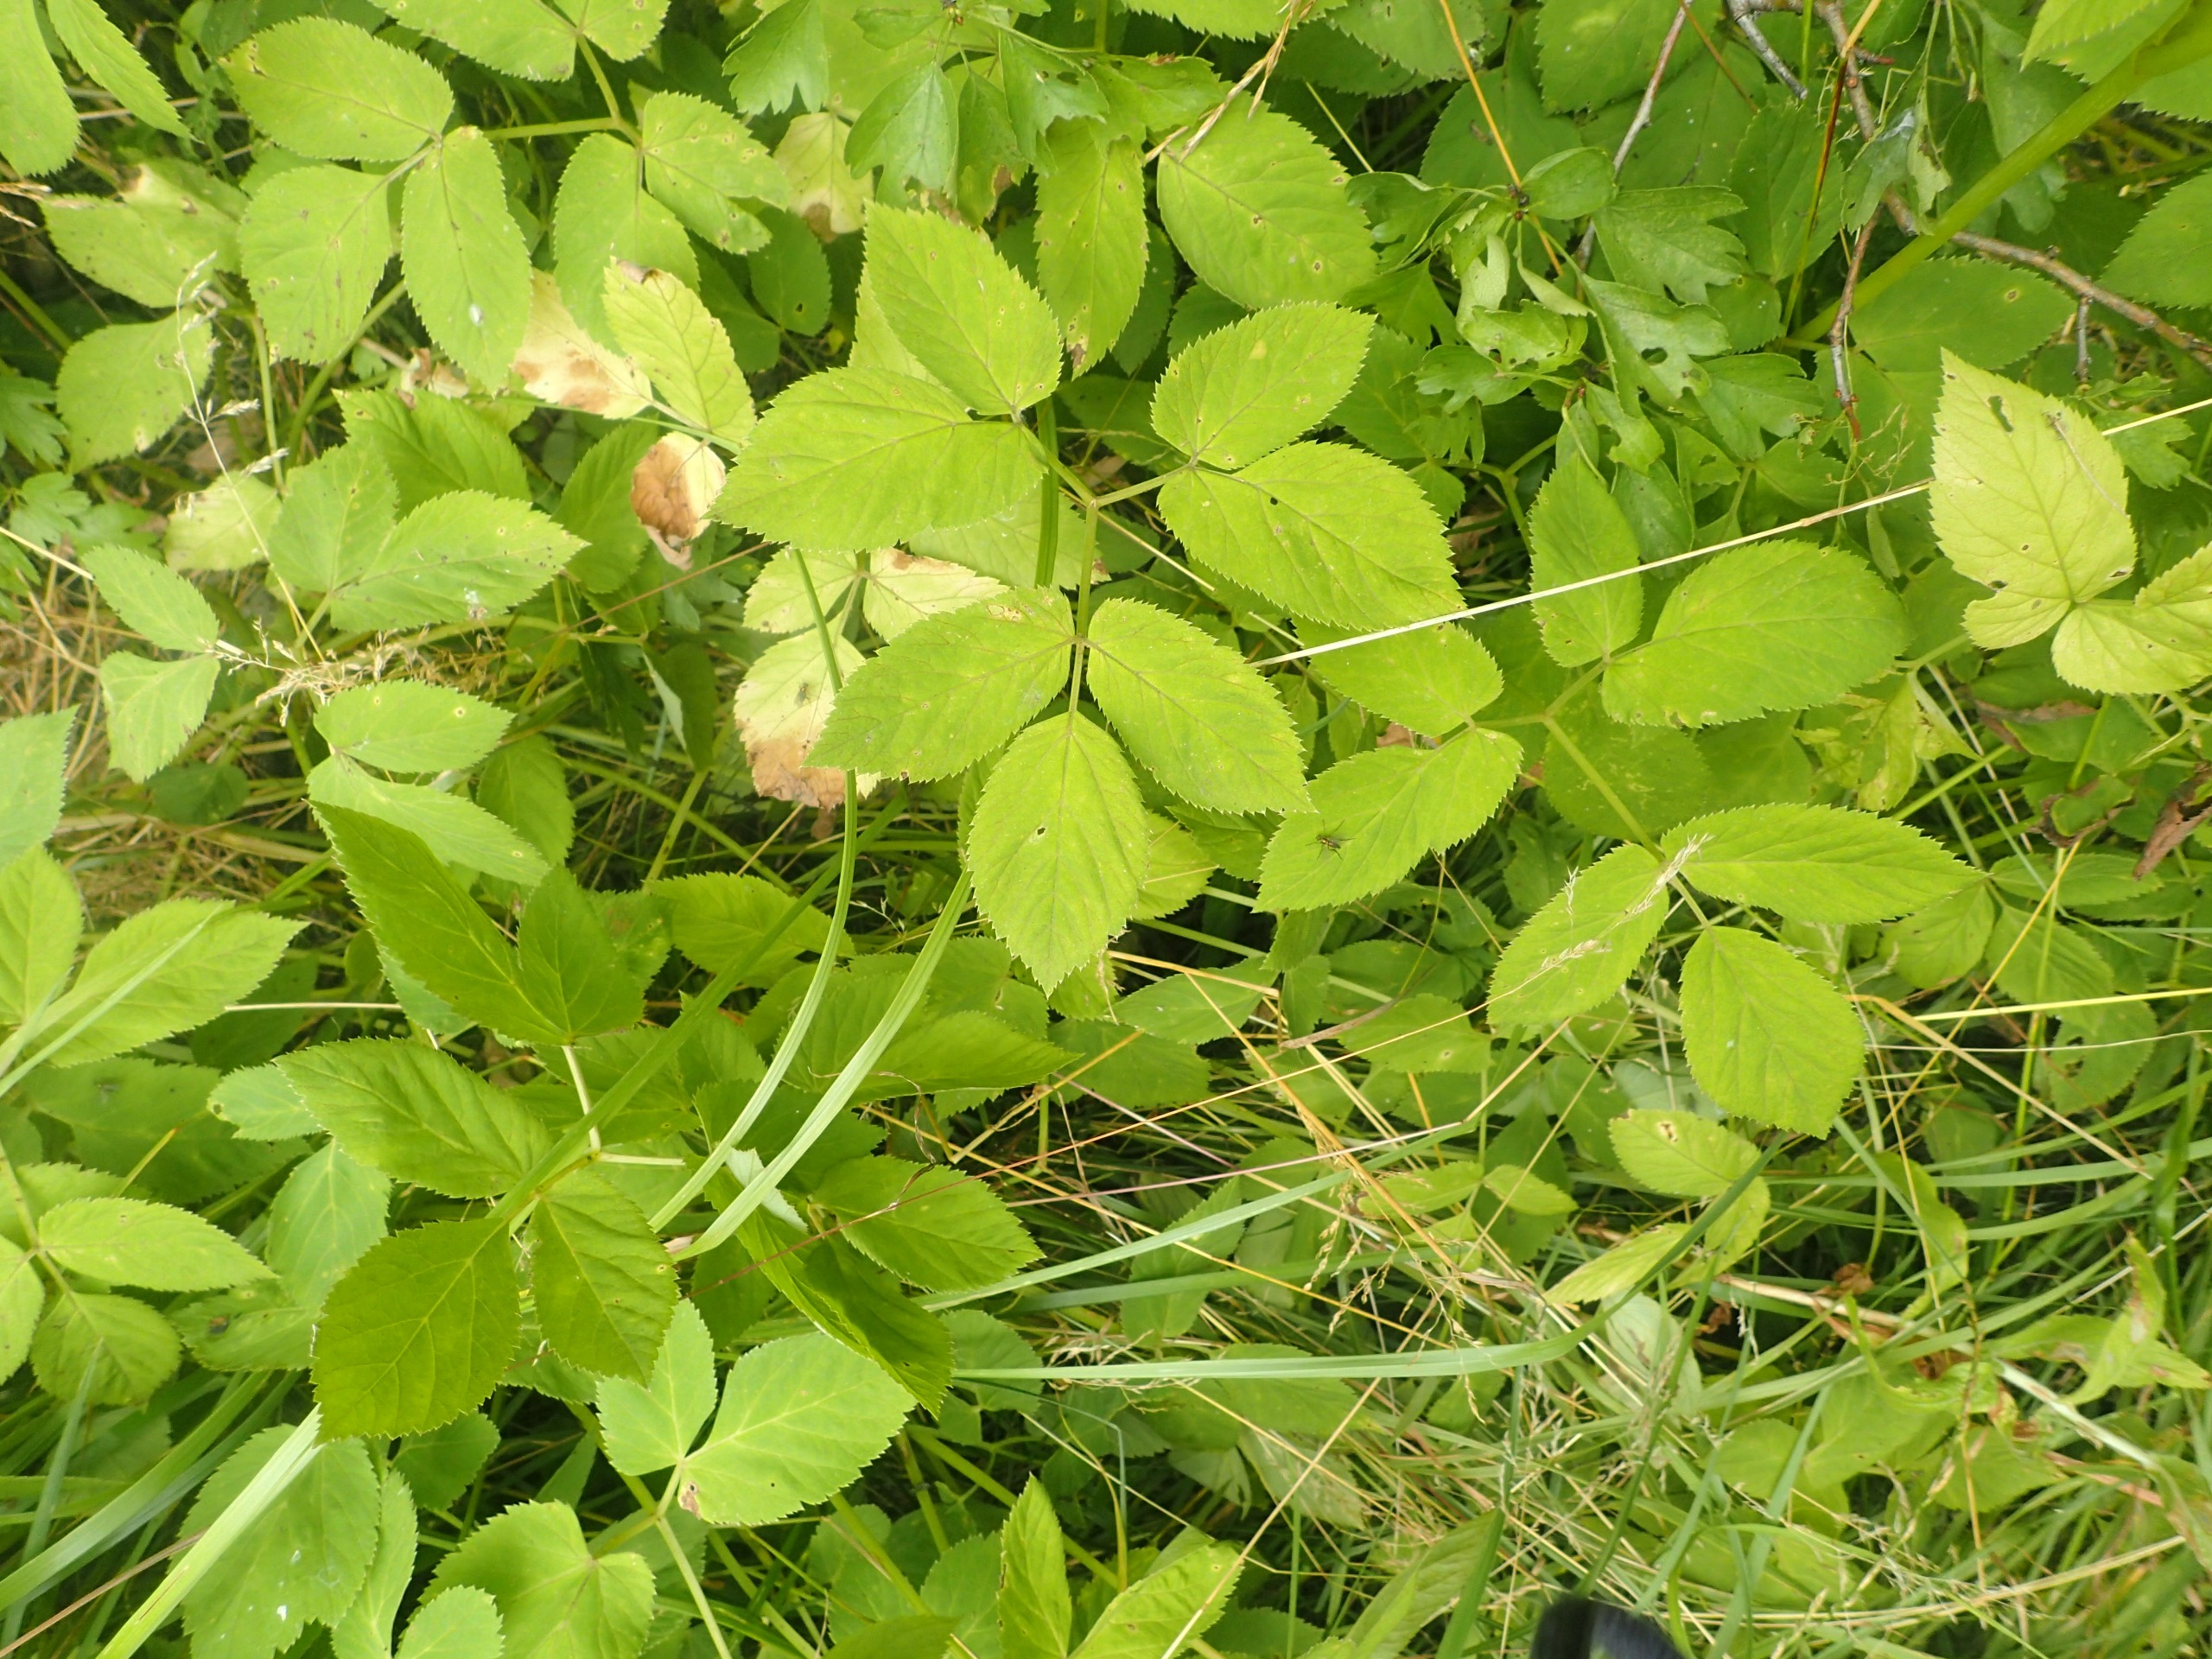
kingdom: Plantae
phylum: Tracheophyta
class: Magnoliopsida
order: Apiales
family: Apiaceae
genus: Aegopodium
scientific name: Aegopodium podagraria
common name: Skvalderkål
